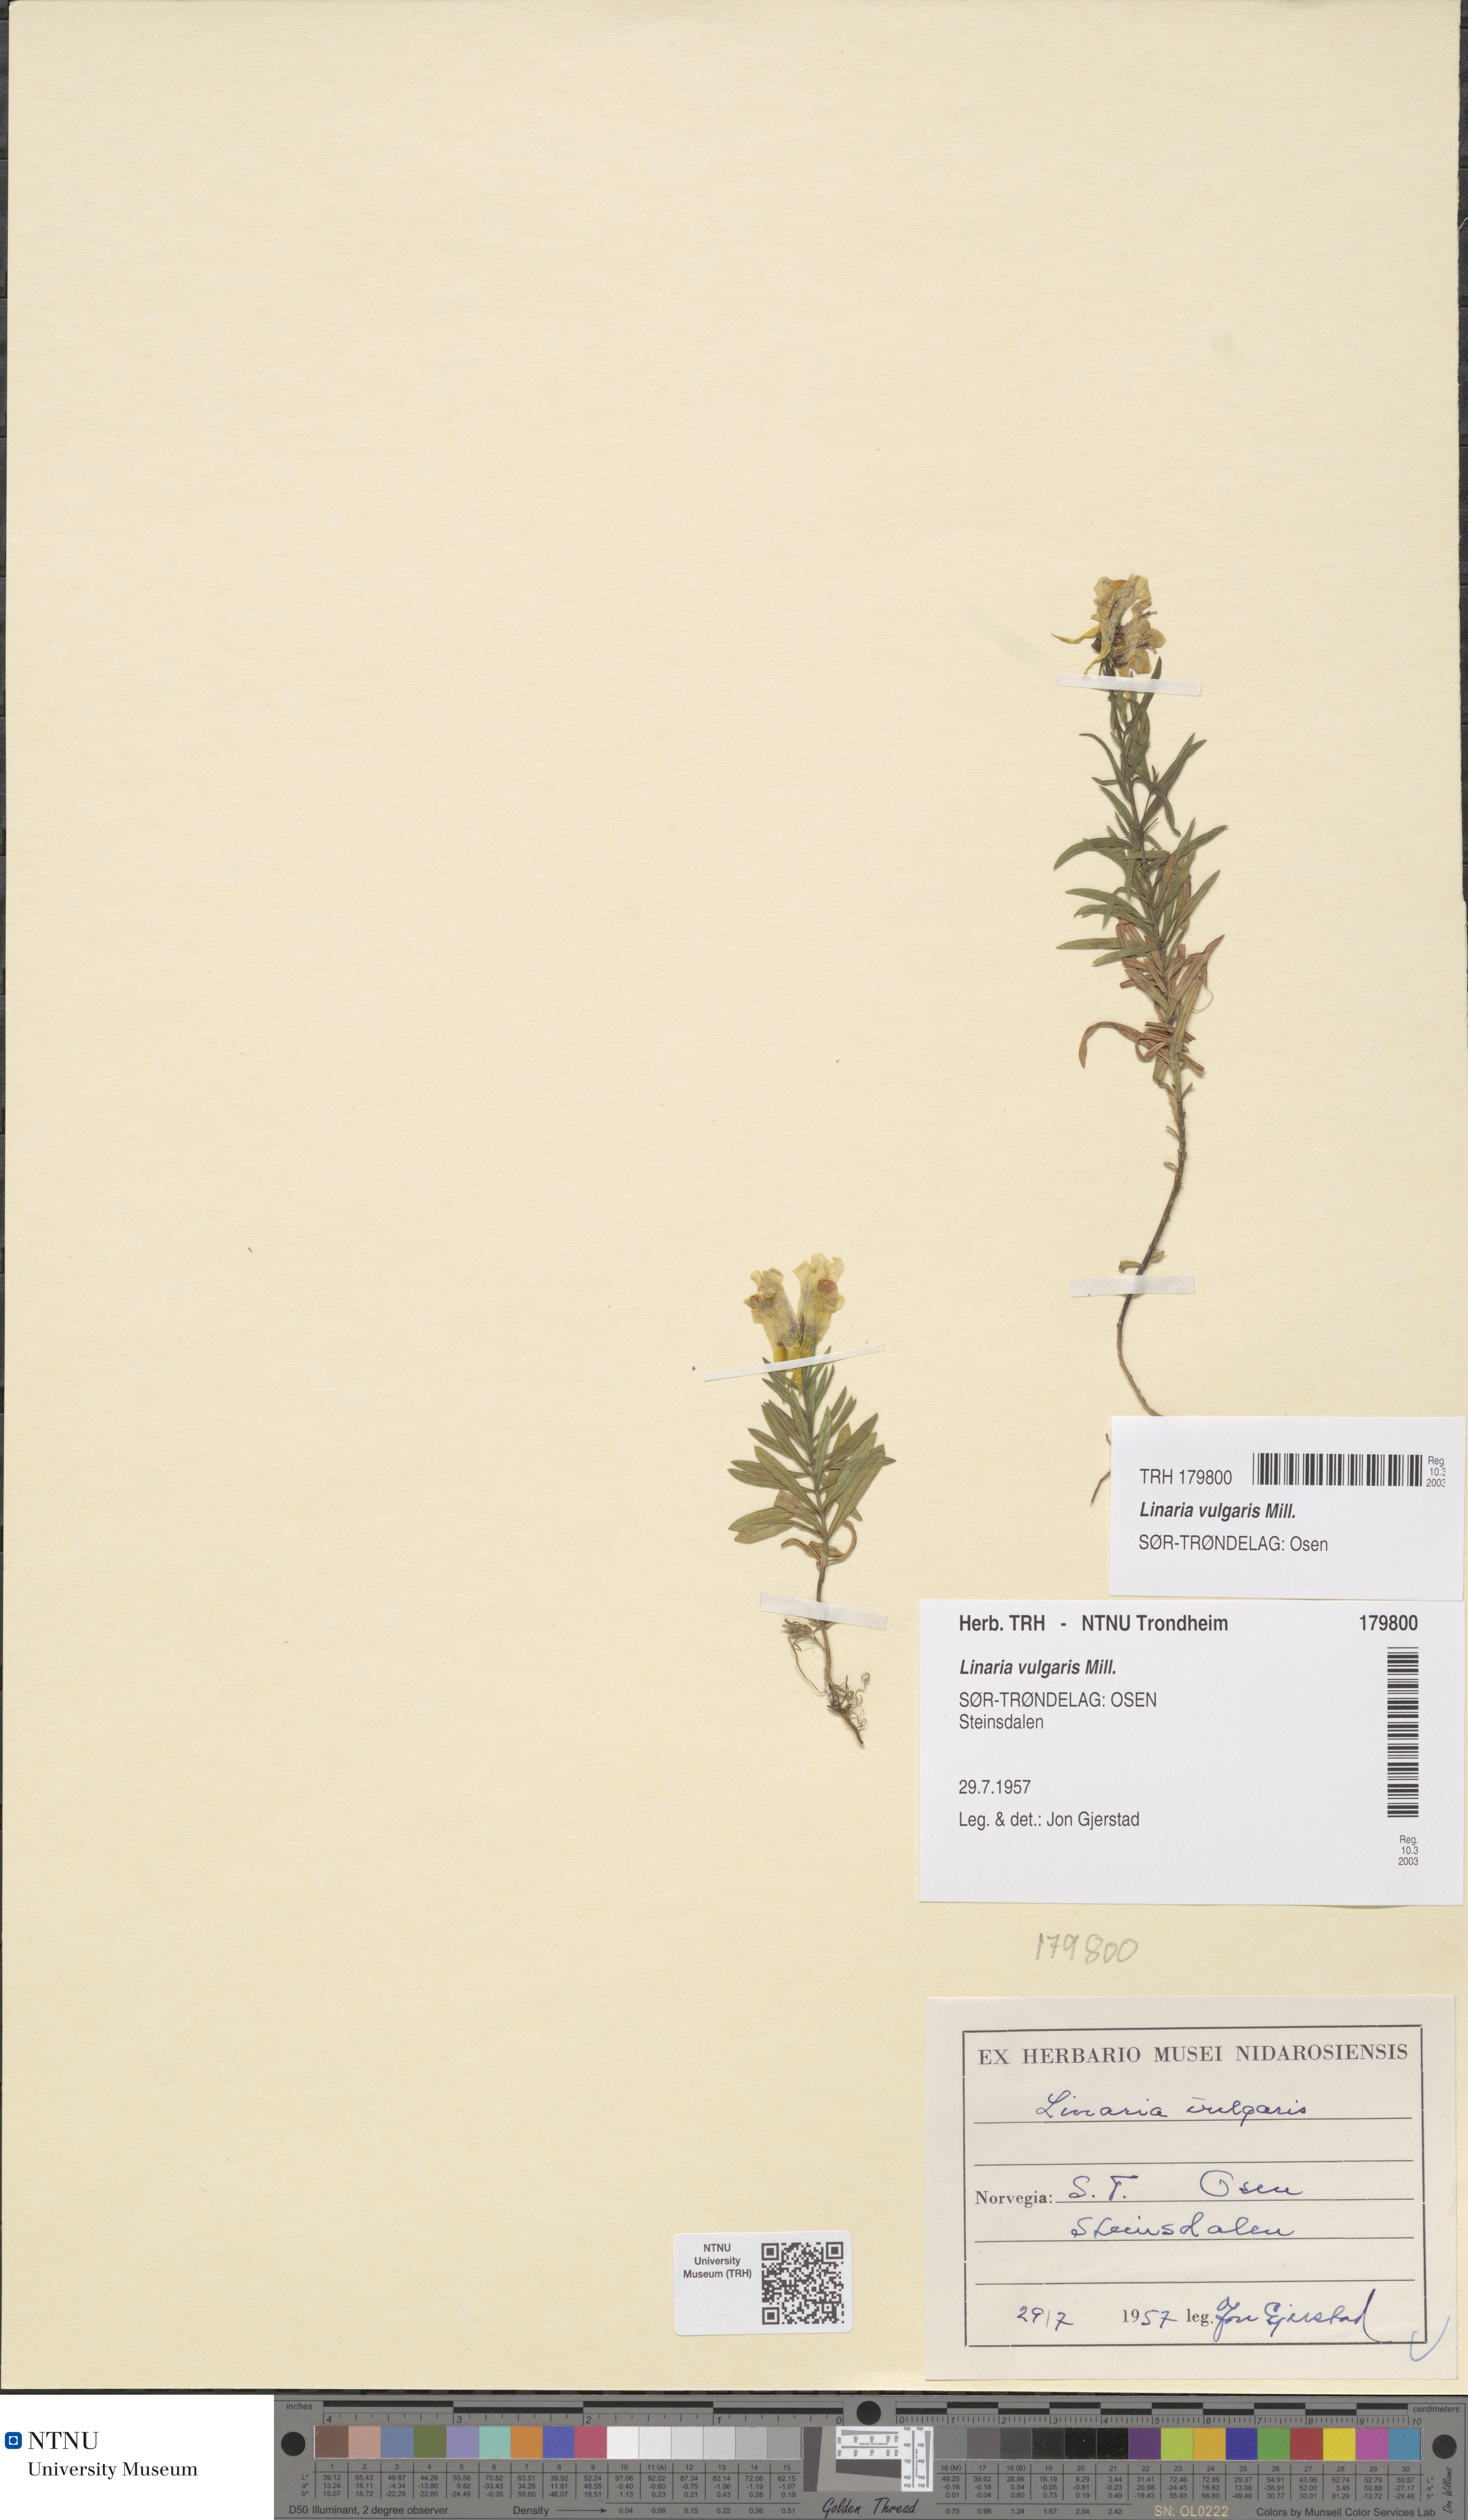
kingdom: Plantae
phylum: Tracheophyta
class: Magnoliopsida
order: Lamiales
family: Plantaginaceae
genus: Linaria
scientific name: Linaria vulgaris
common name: Butter and eggs
